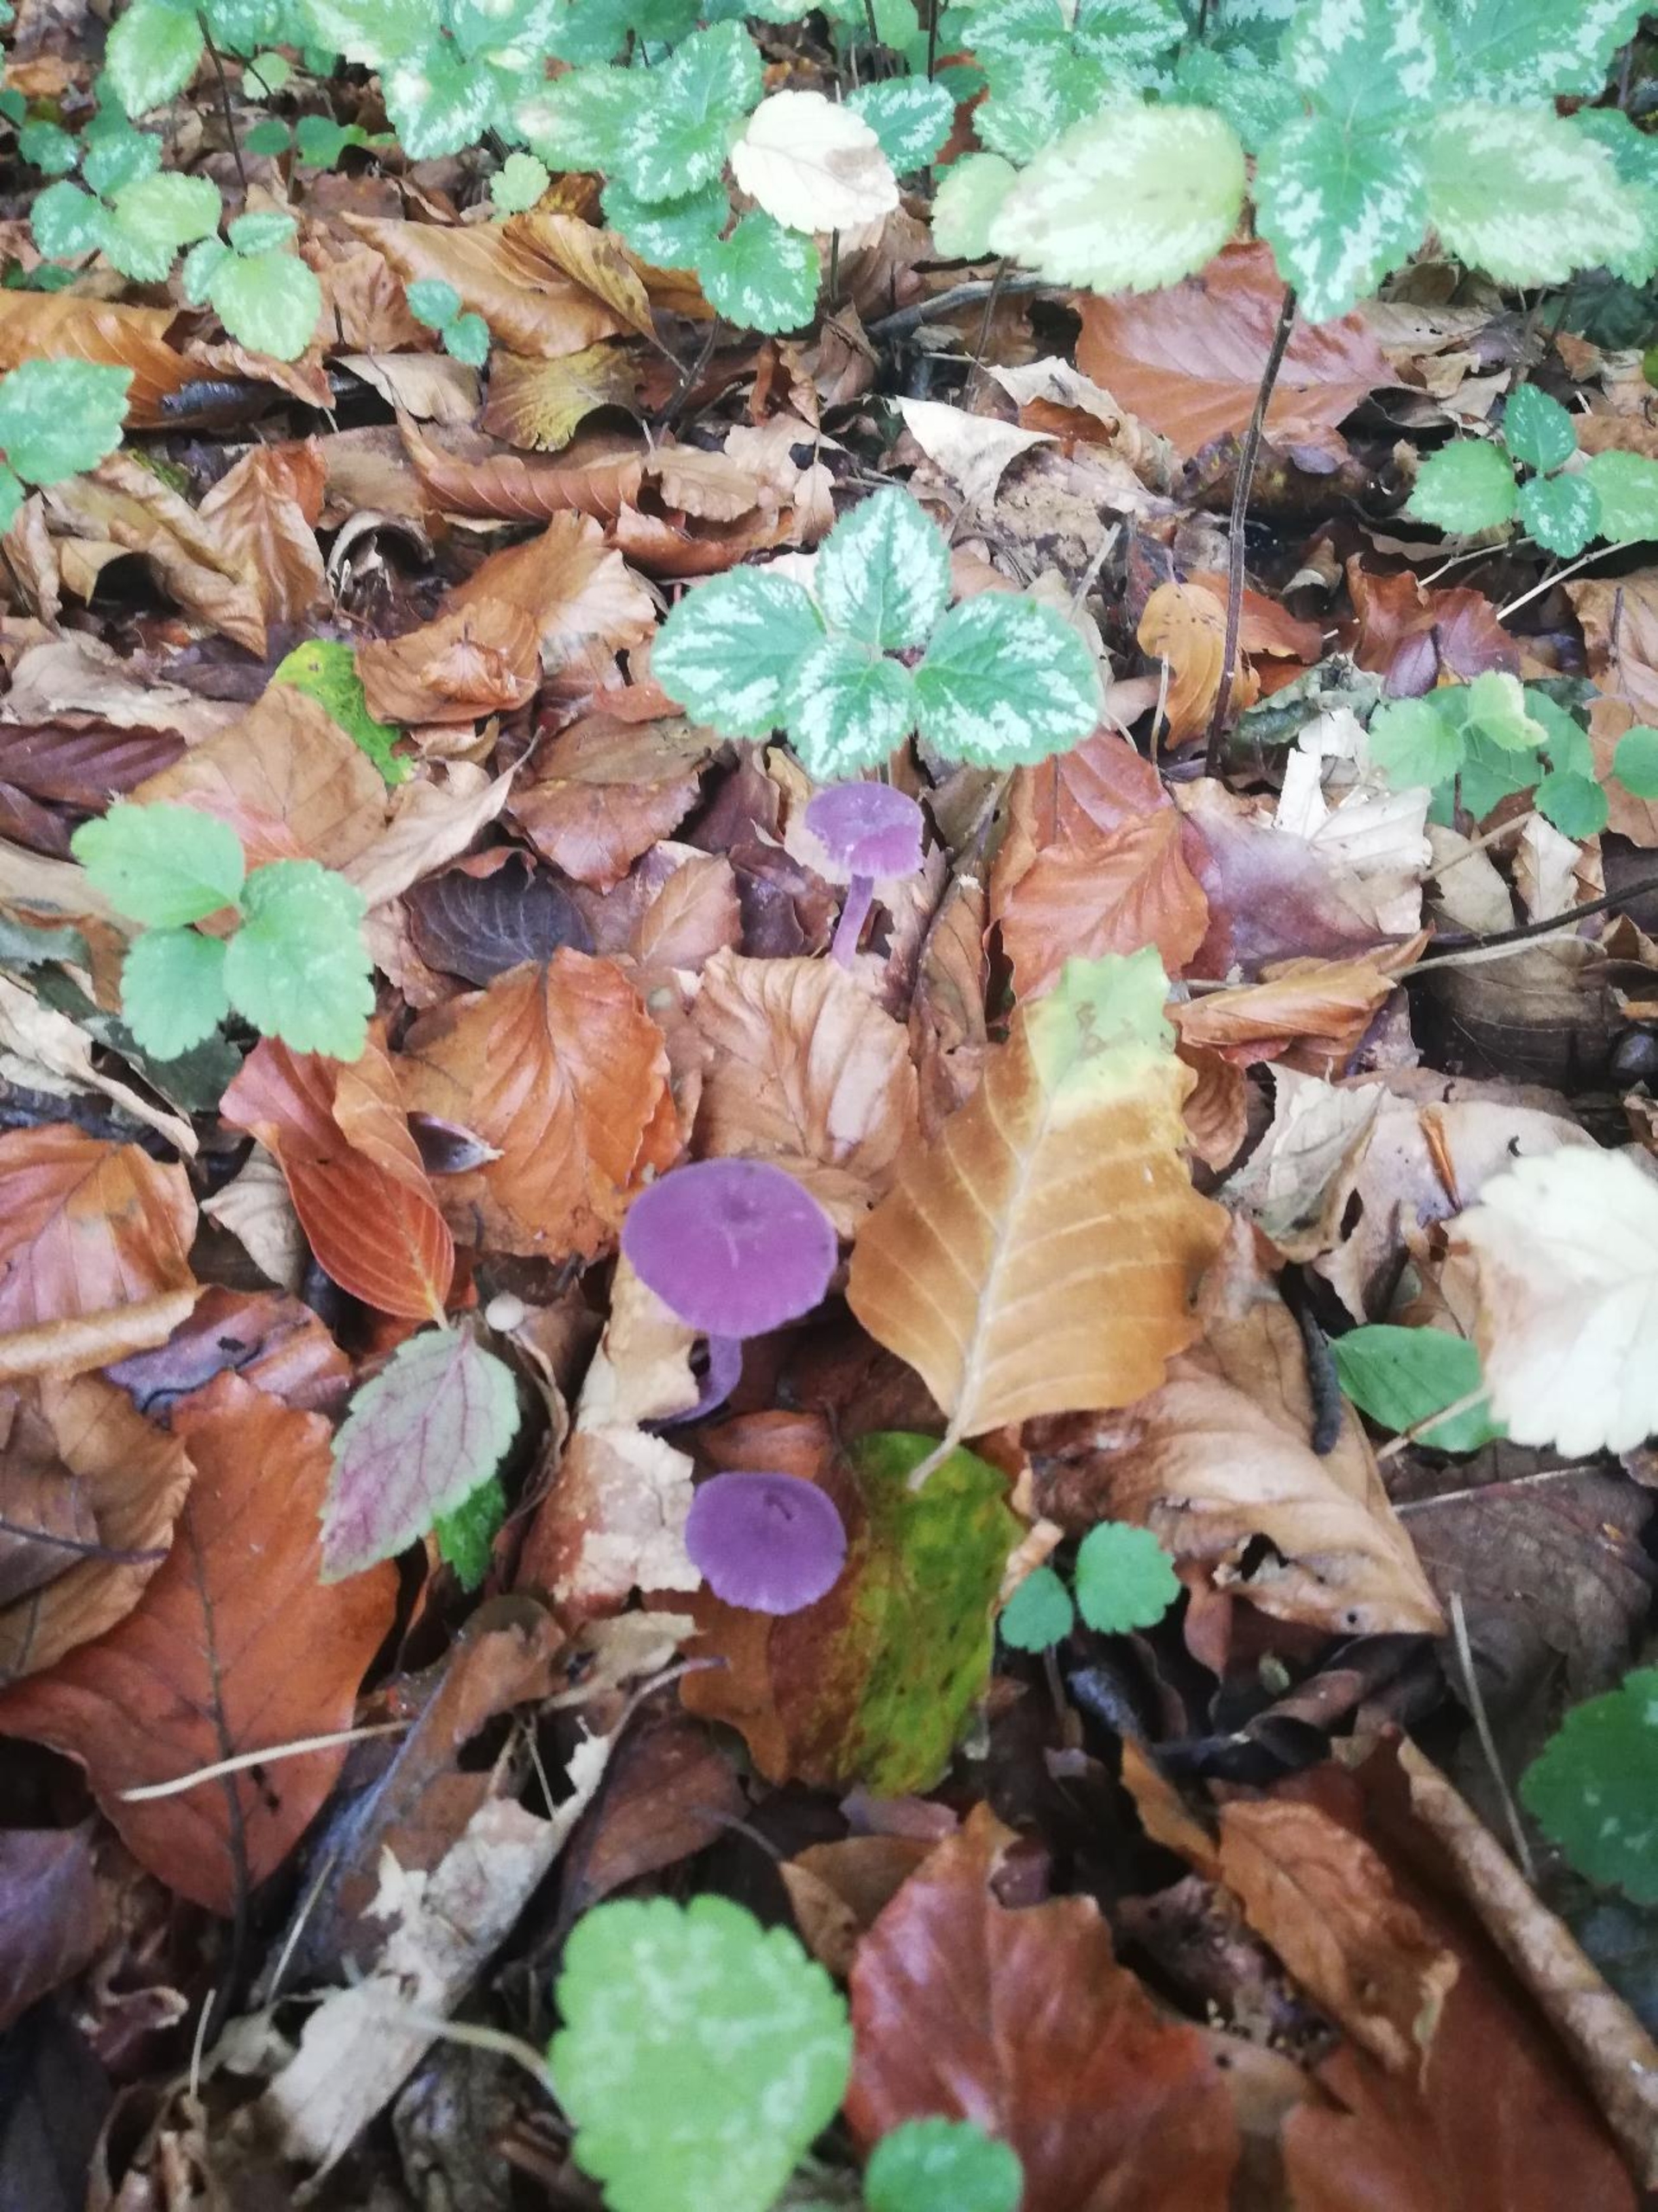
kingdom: Fungi
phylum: Basidiomycota
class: Agaricomycetes
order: Agaricales
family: Hydnangiaceae
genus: Laccaria
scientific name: Laccaria amethystina
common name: Violet ametysthat
